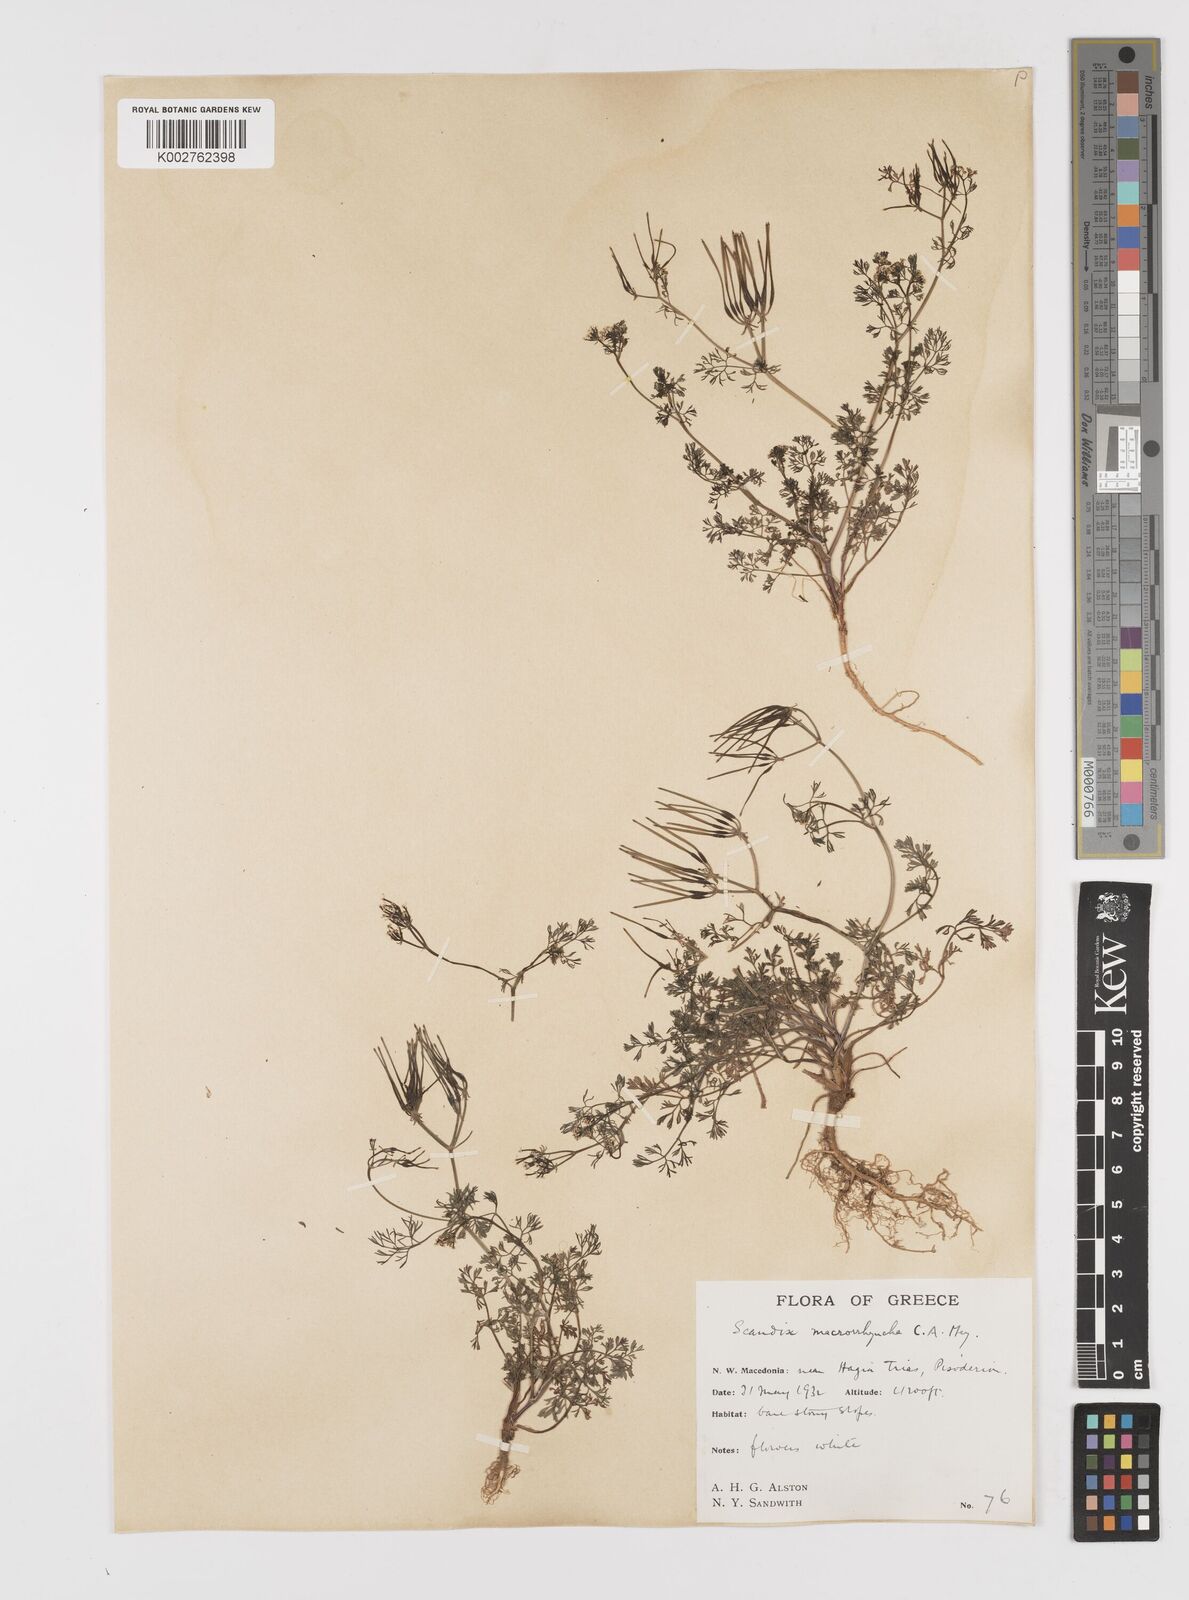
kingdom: Plantae
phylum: Tracheophyta
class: Magnoliopsida
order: Apiales
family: Apiaceae
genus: Scandix
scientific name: Scandix pecten-veneris
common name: Shepherd's-needle
